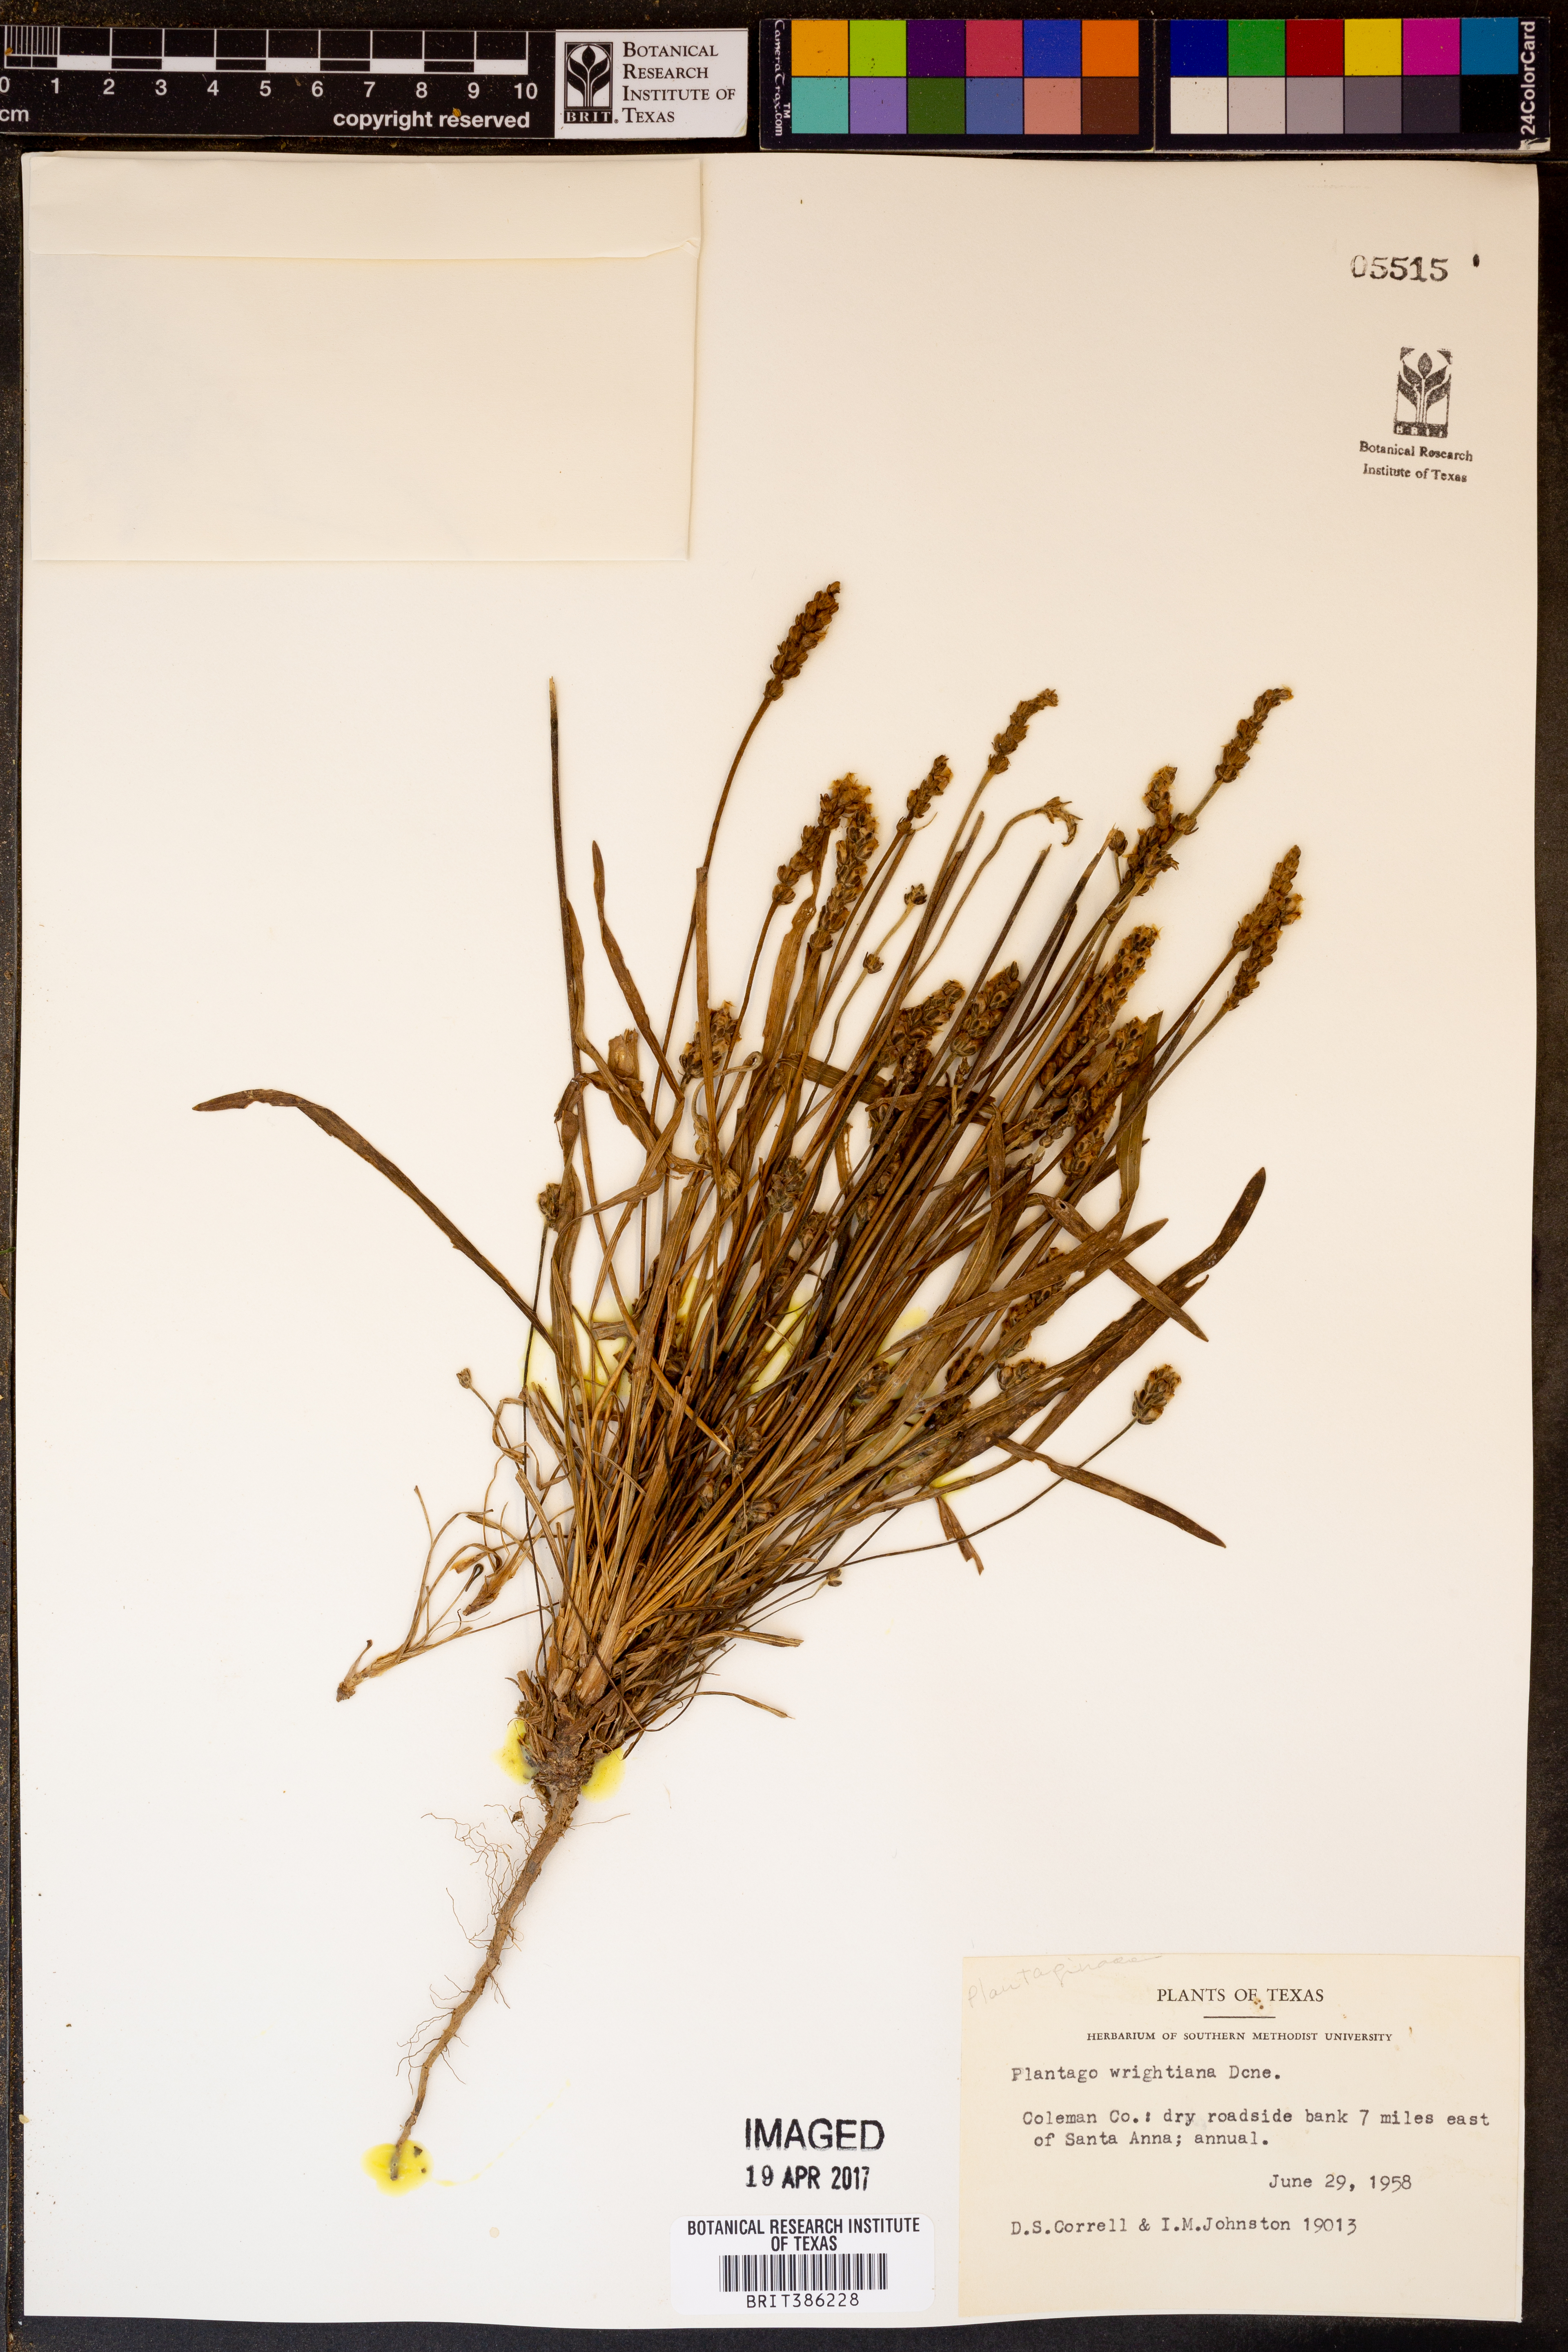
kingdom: Plantae
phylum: Tracheophyta
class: Magnoliopsida
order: Lamiales
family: Plantaginaceae
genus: Plantago
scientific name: Plantago wrightiana
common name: Wright's plantain
